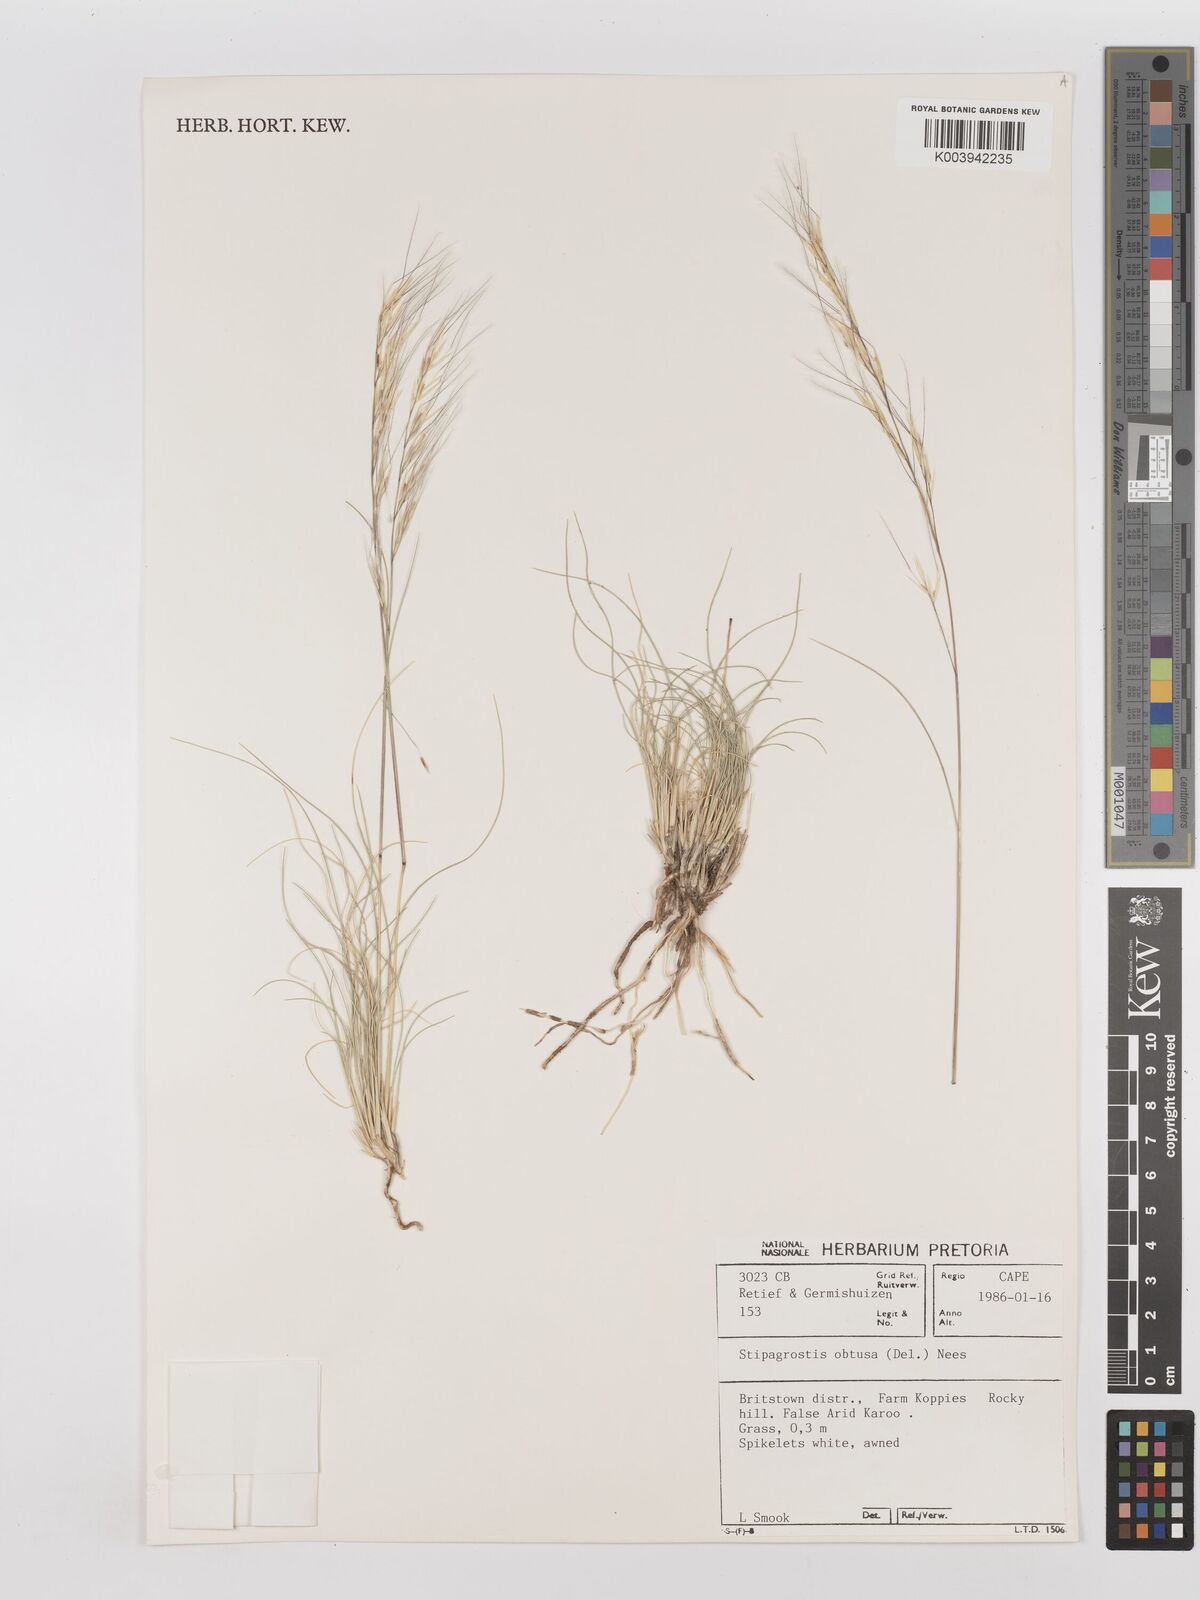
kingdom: Plantae
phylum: Tracheophyta
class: Liliopsida
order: Poales
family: Poaceae
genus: Stipagrostis
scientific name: Stipagrostis obtusa
